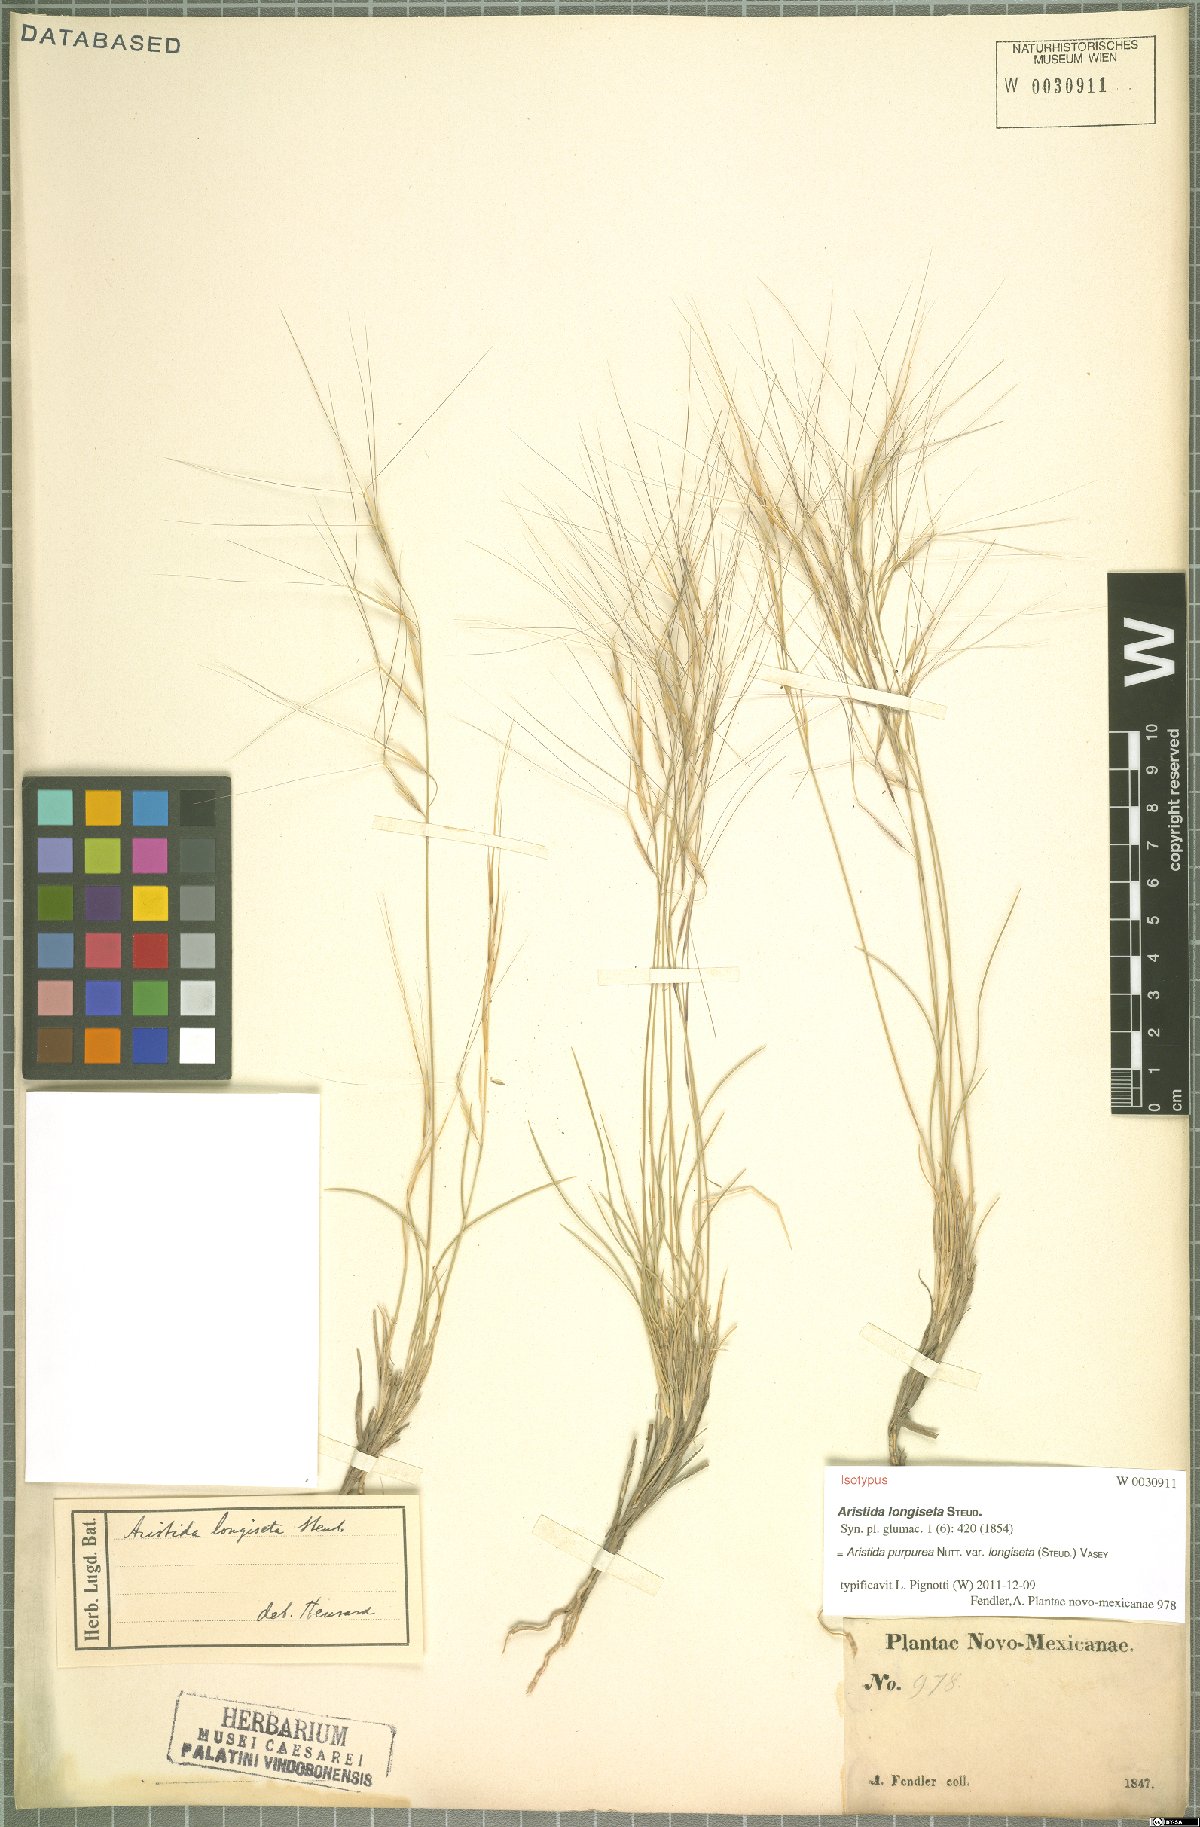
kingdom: Plantae
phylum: Tracheophyta
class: Liliopsida
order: Poales
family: Poaceae
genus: Aristida
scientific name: Aristida longiseta
